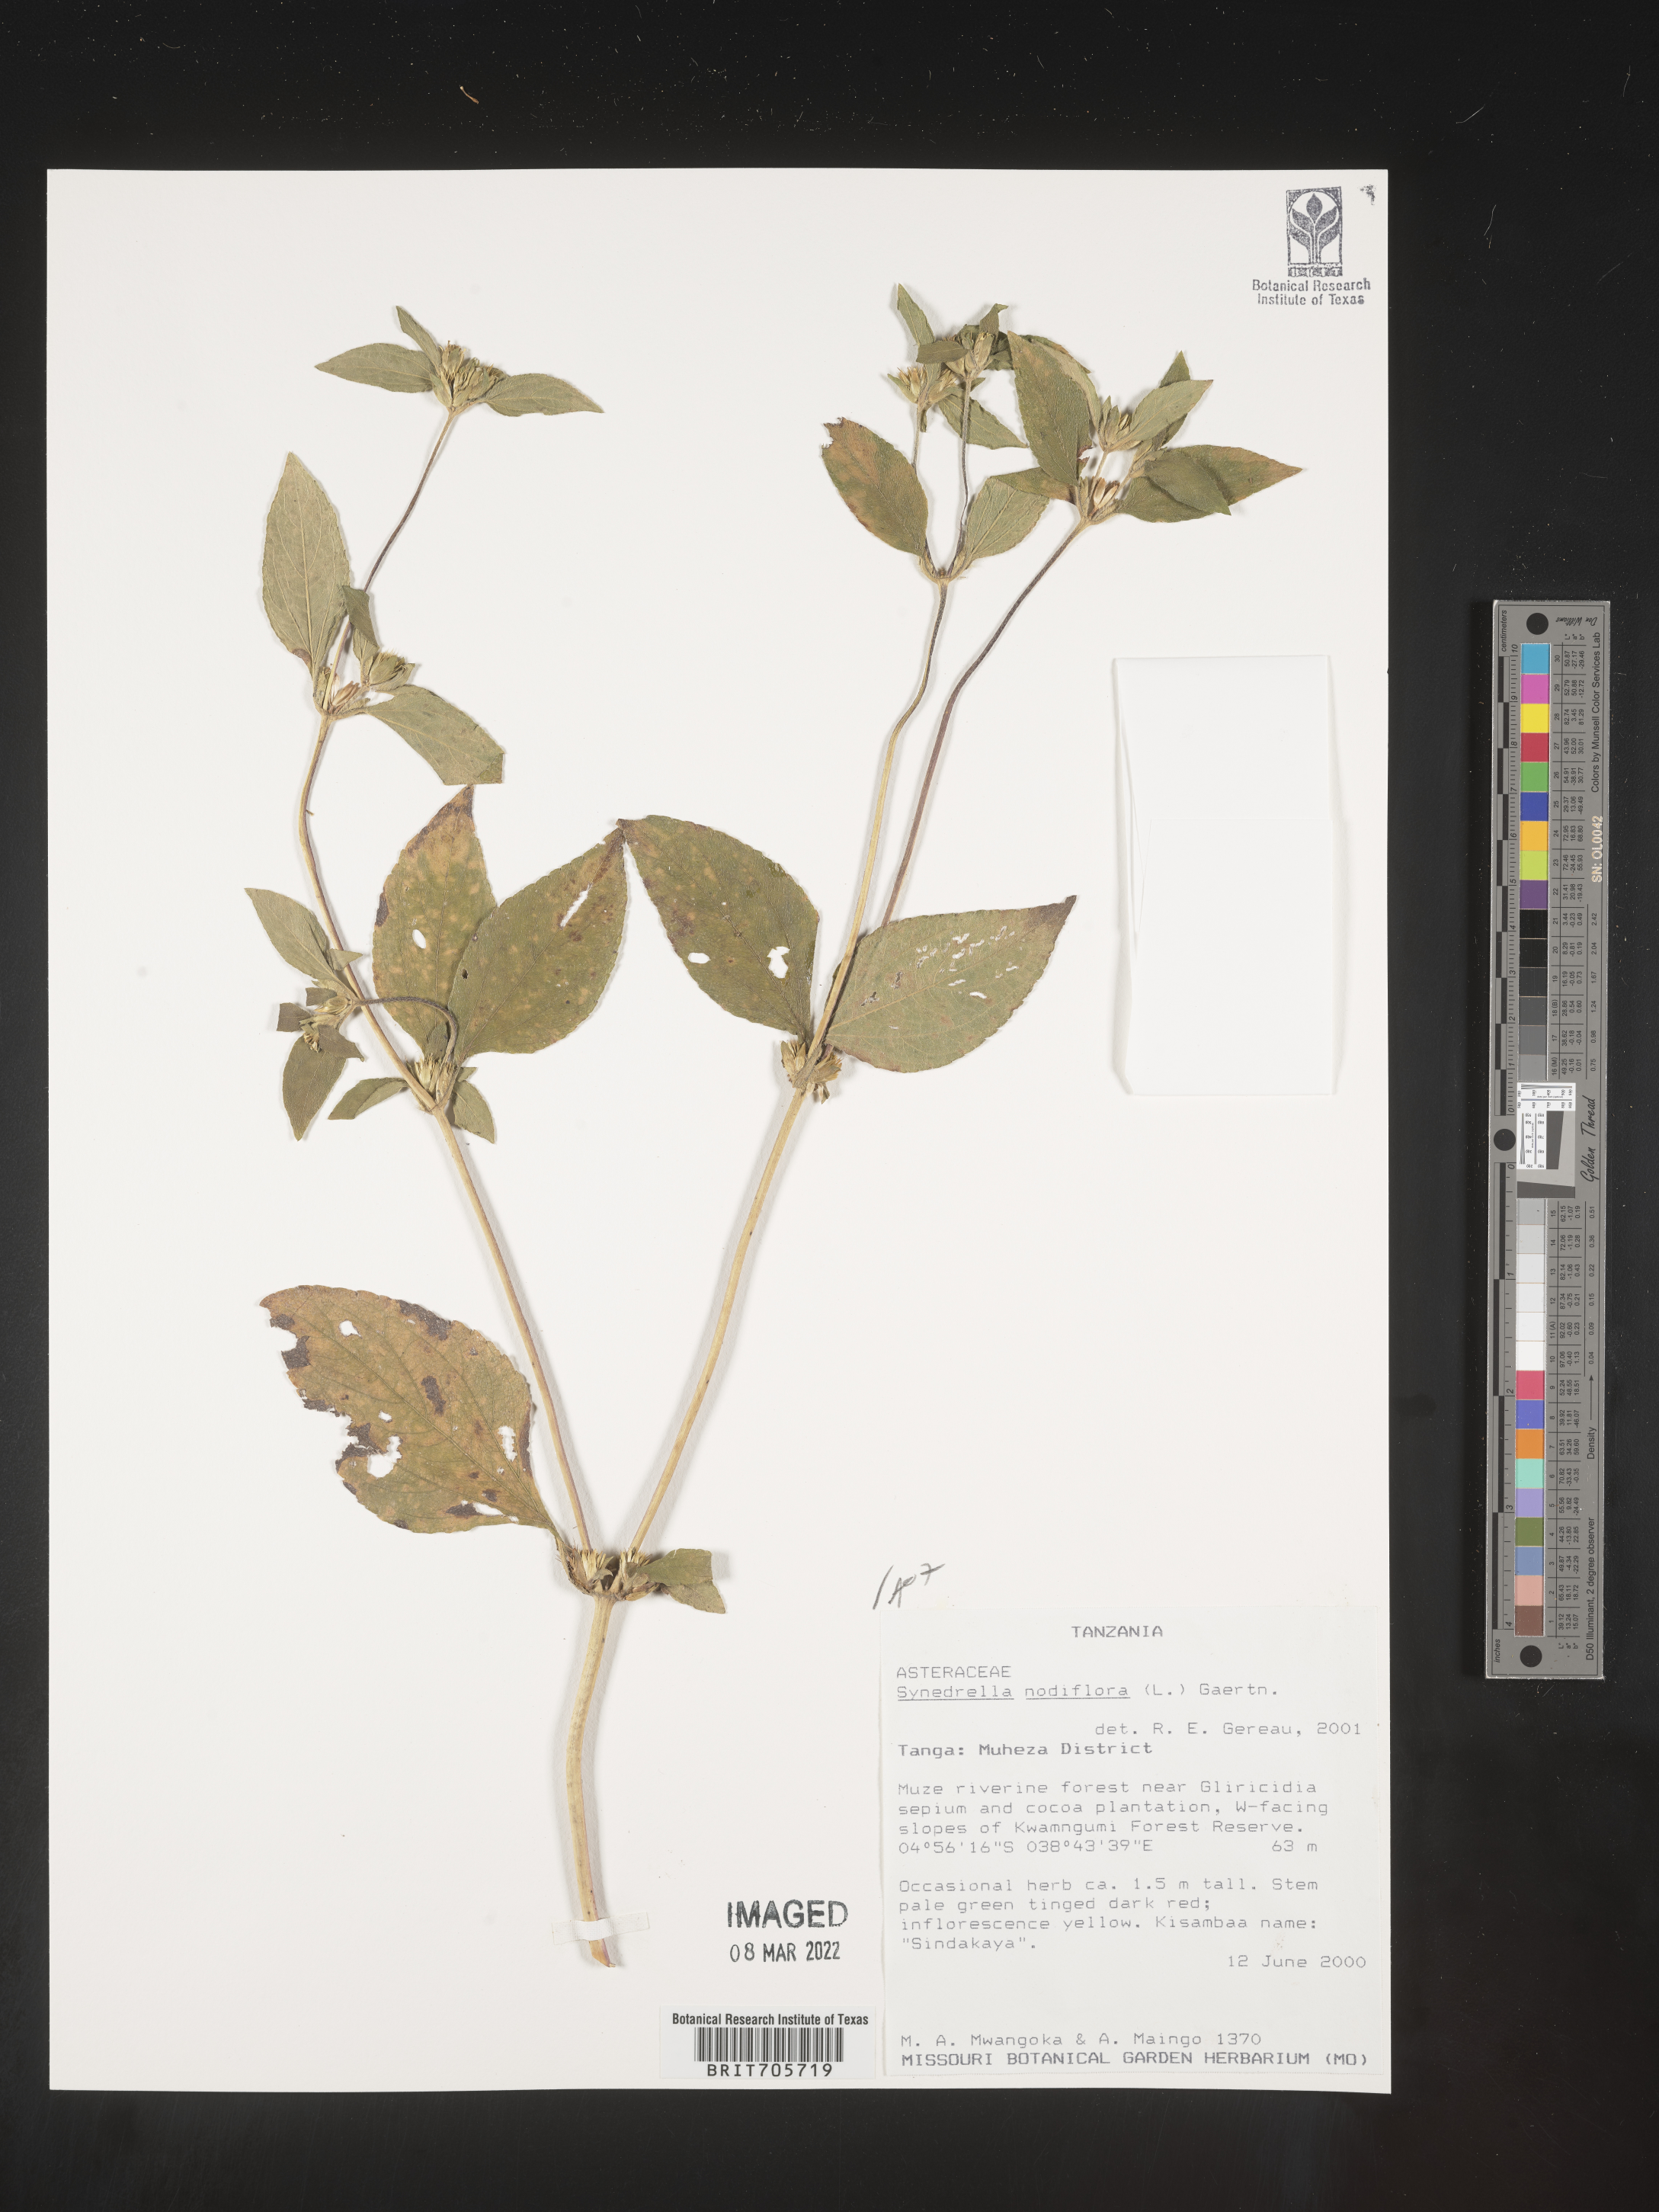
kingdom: Plantae
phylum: Tracheophyta
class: Magnoliopsida
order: Asterales
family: Asteraceae
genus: Synedrella
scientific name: Synedrella
